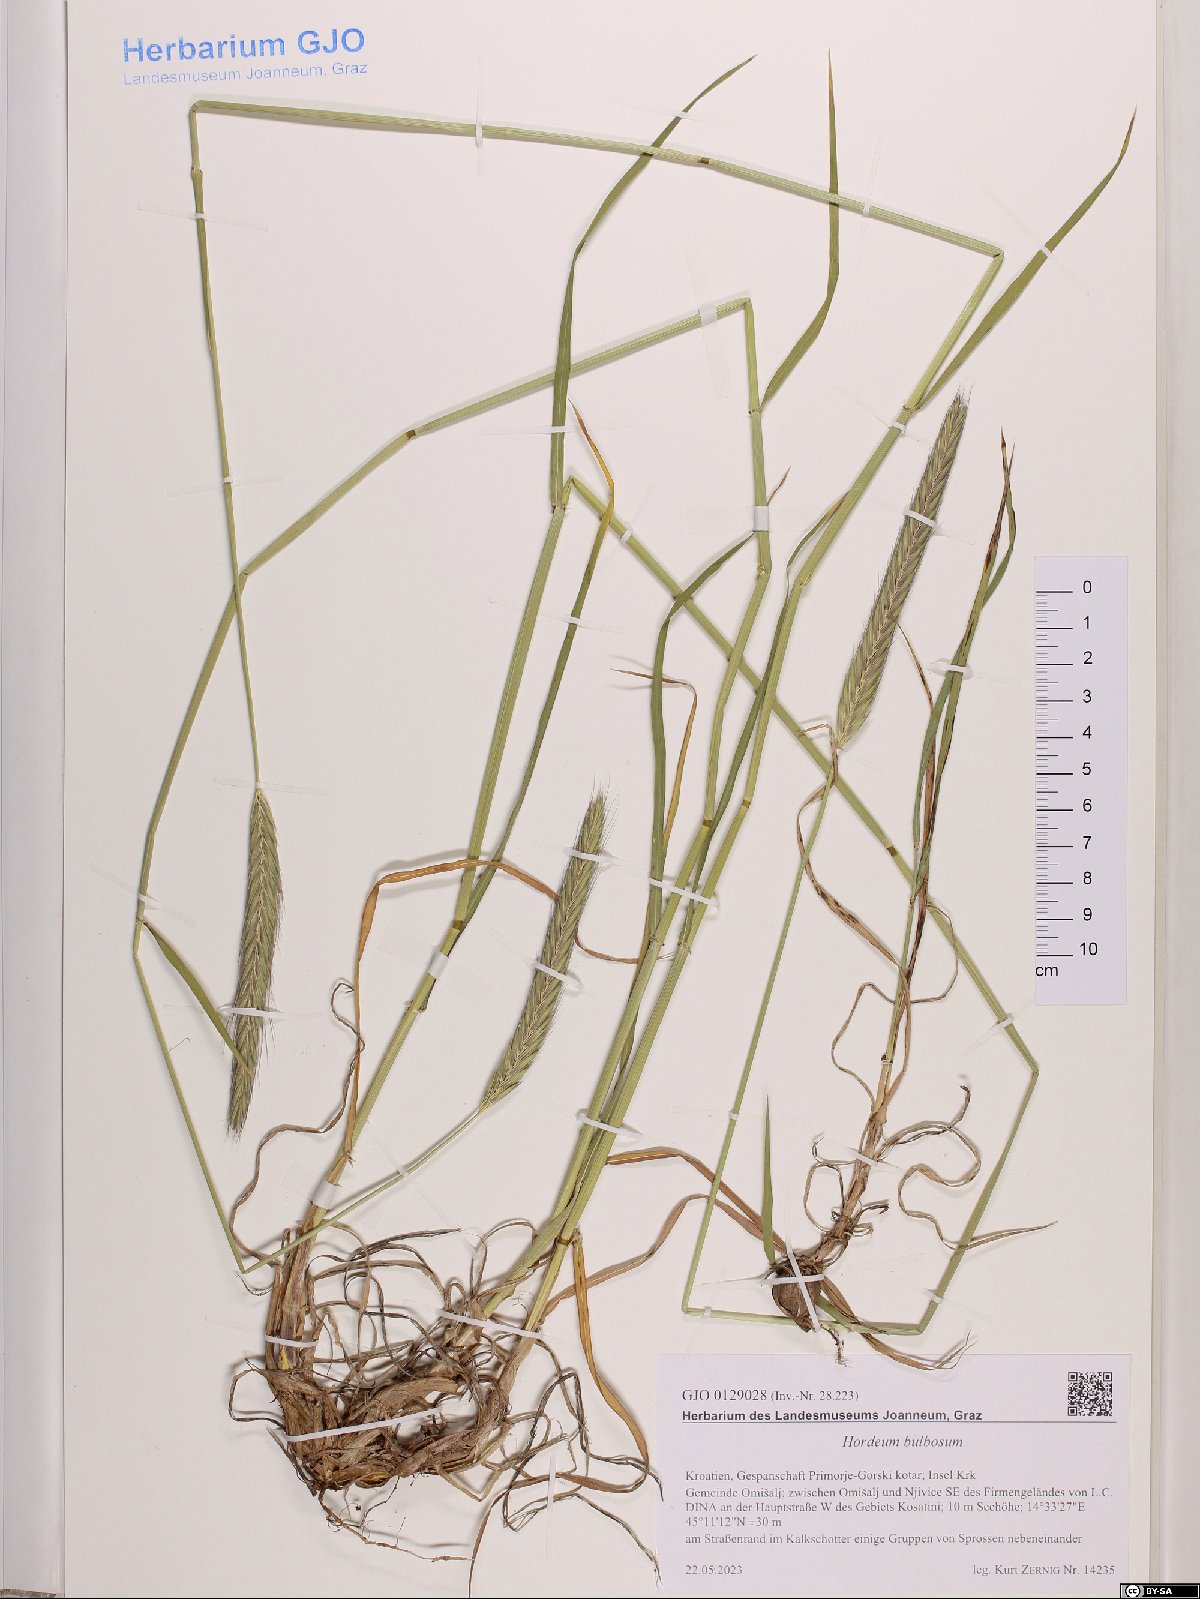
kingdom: Plantae
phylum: Tracheophyta
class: Liliopsida
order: Poales
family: Poaceae
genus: Hordeum
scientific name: Hordeum bulbosum
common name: Bulbous barley
